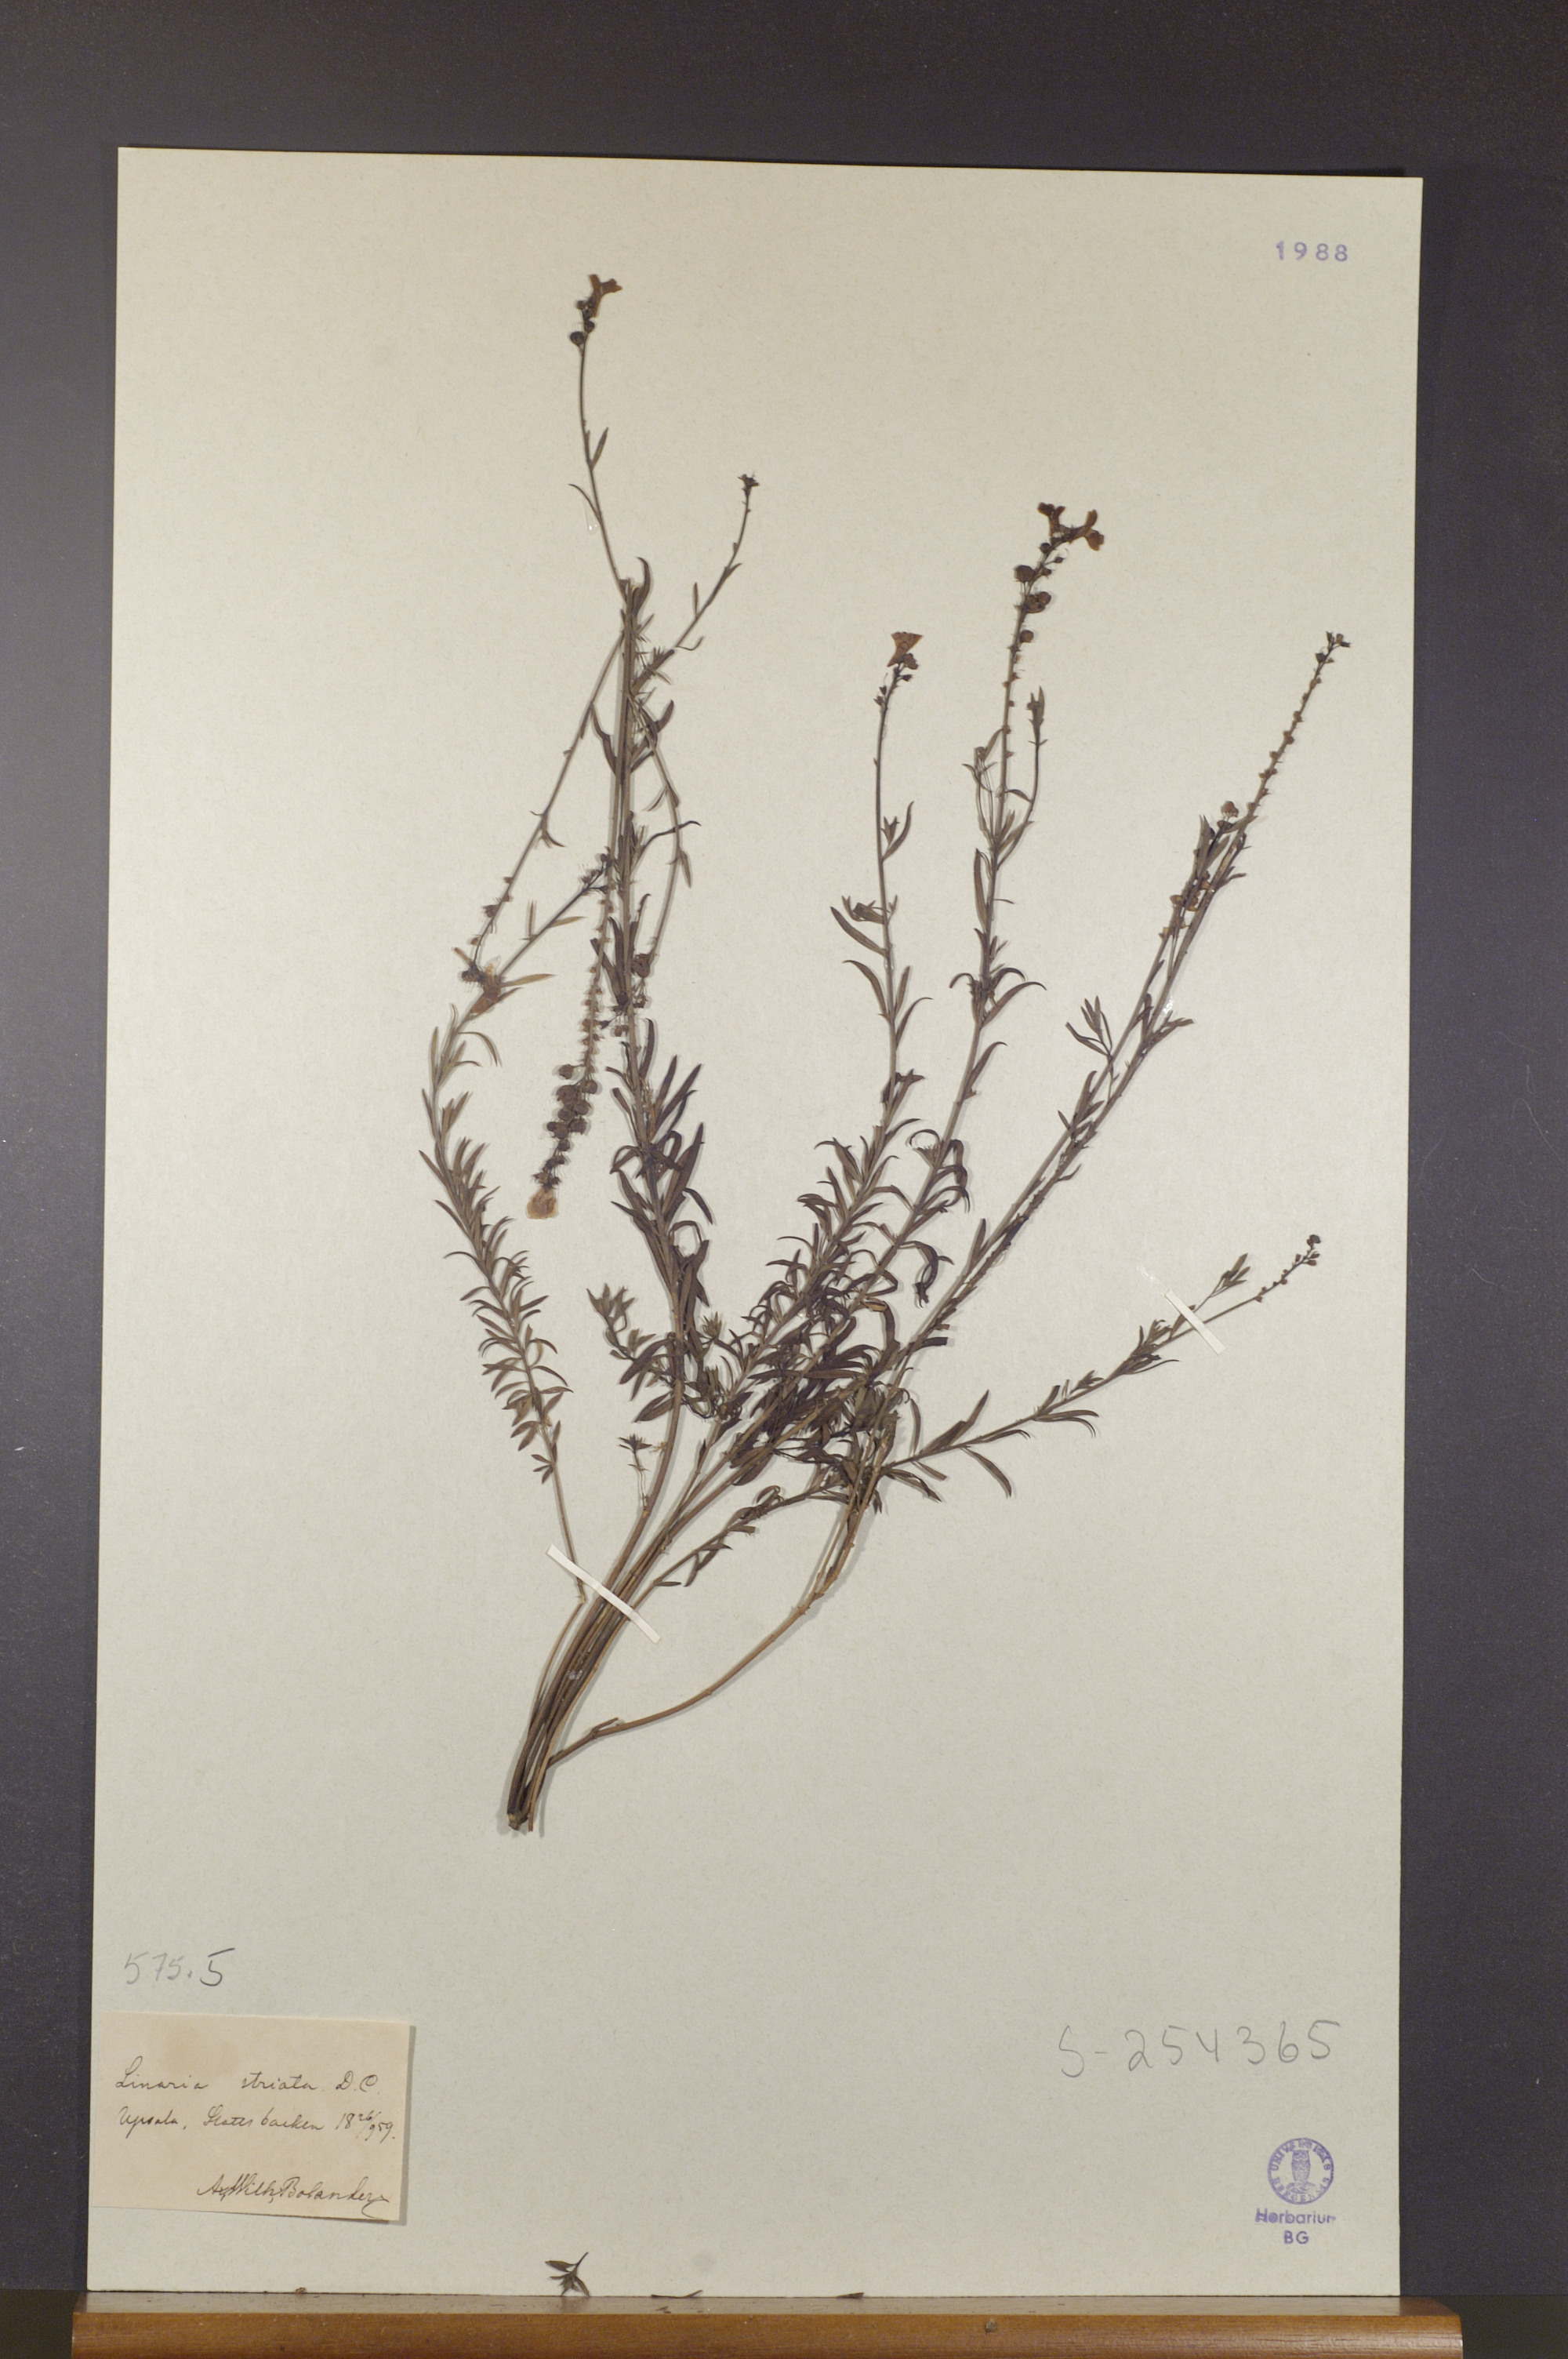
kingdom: Plantae
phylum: Tracheophyta
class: Magnoliopsida
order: Lamiales
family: Plantaginaceae
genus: Linaria
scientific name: Linaria repens
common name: Pale toadflax
